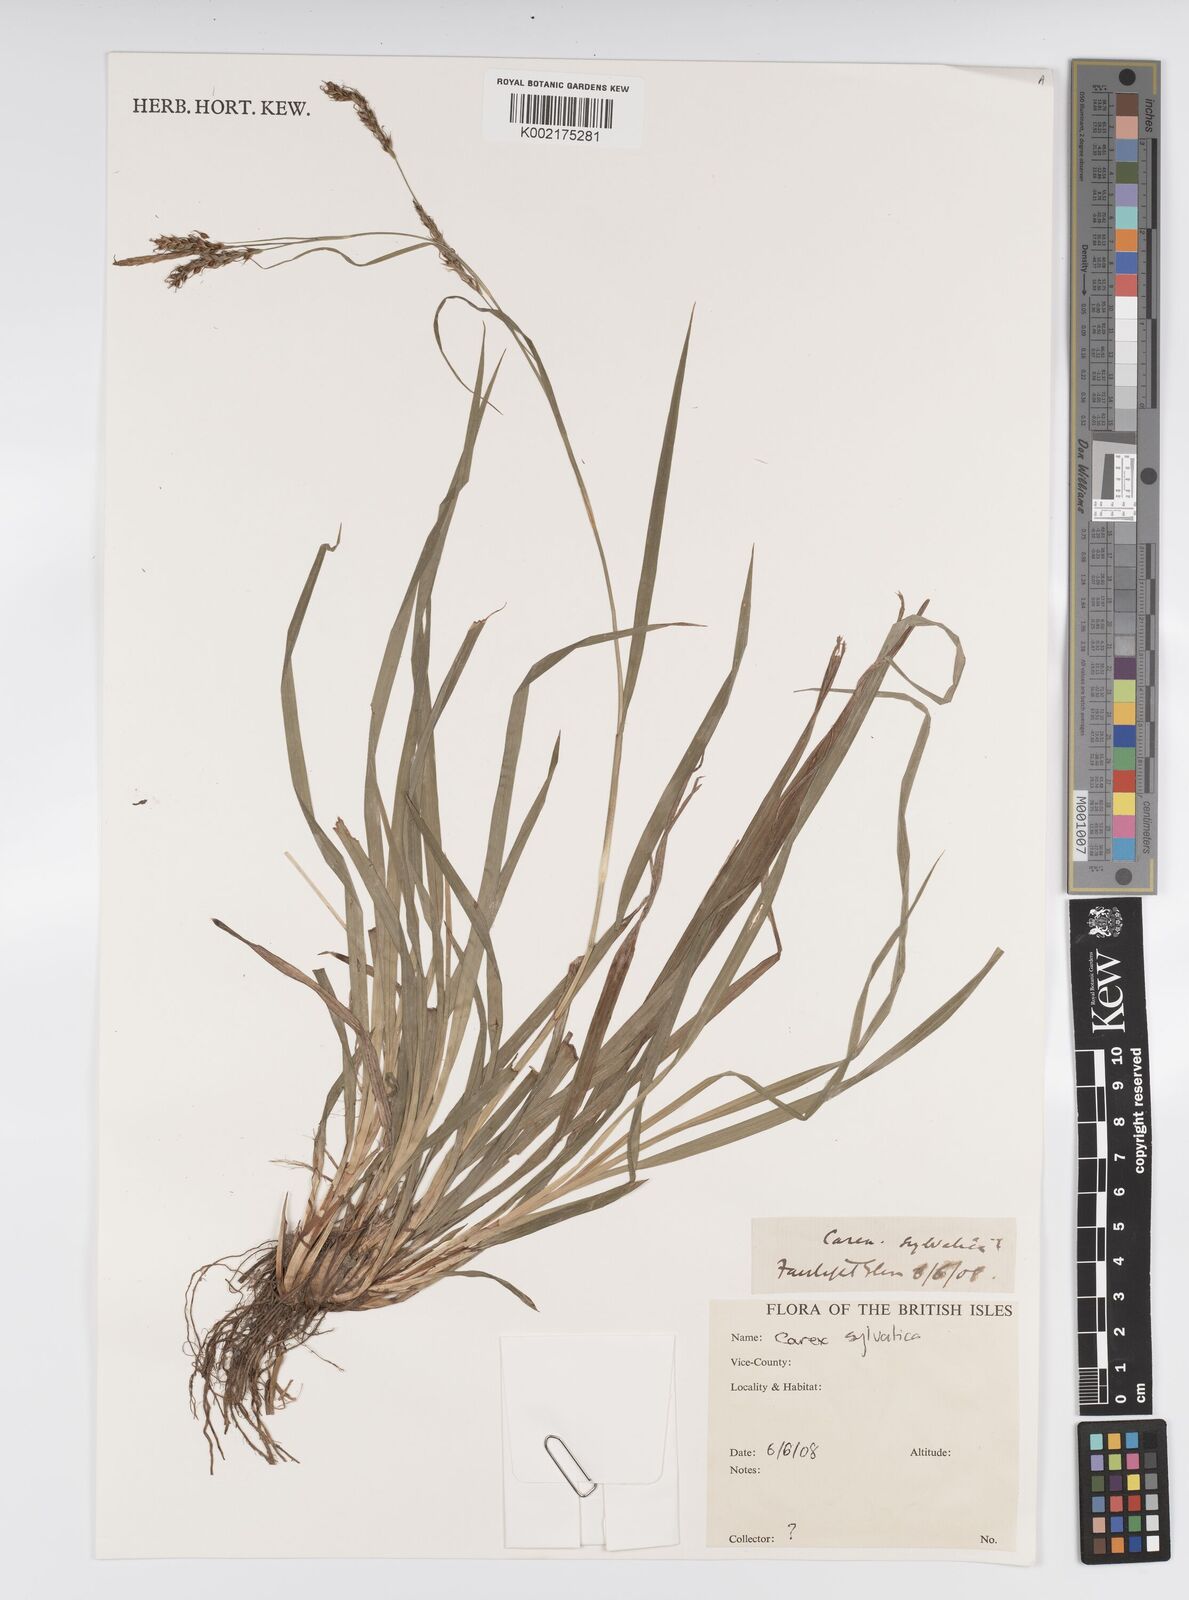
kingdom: Plantae
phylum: Tracheophyta
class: Liliopsida
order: Poales
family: Cyperaceae
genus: Carex
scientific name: Carex sylvatica
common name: Wood-sedge
